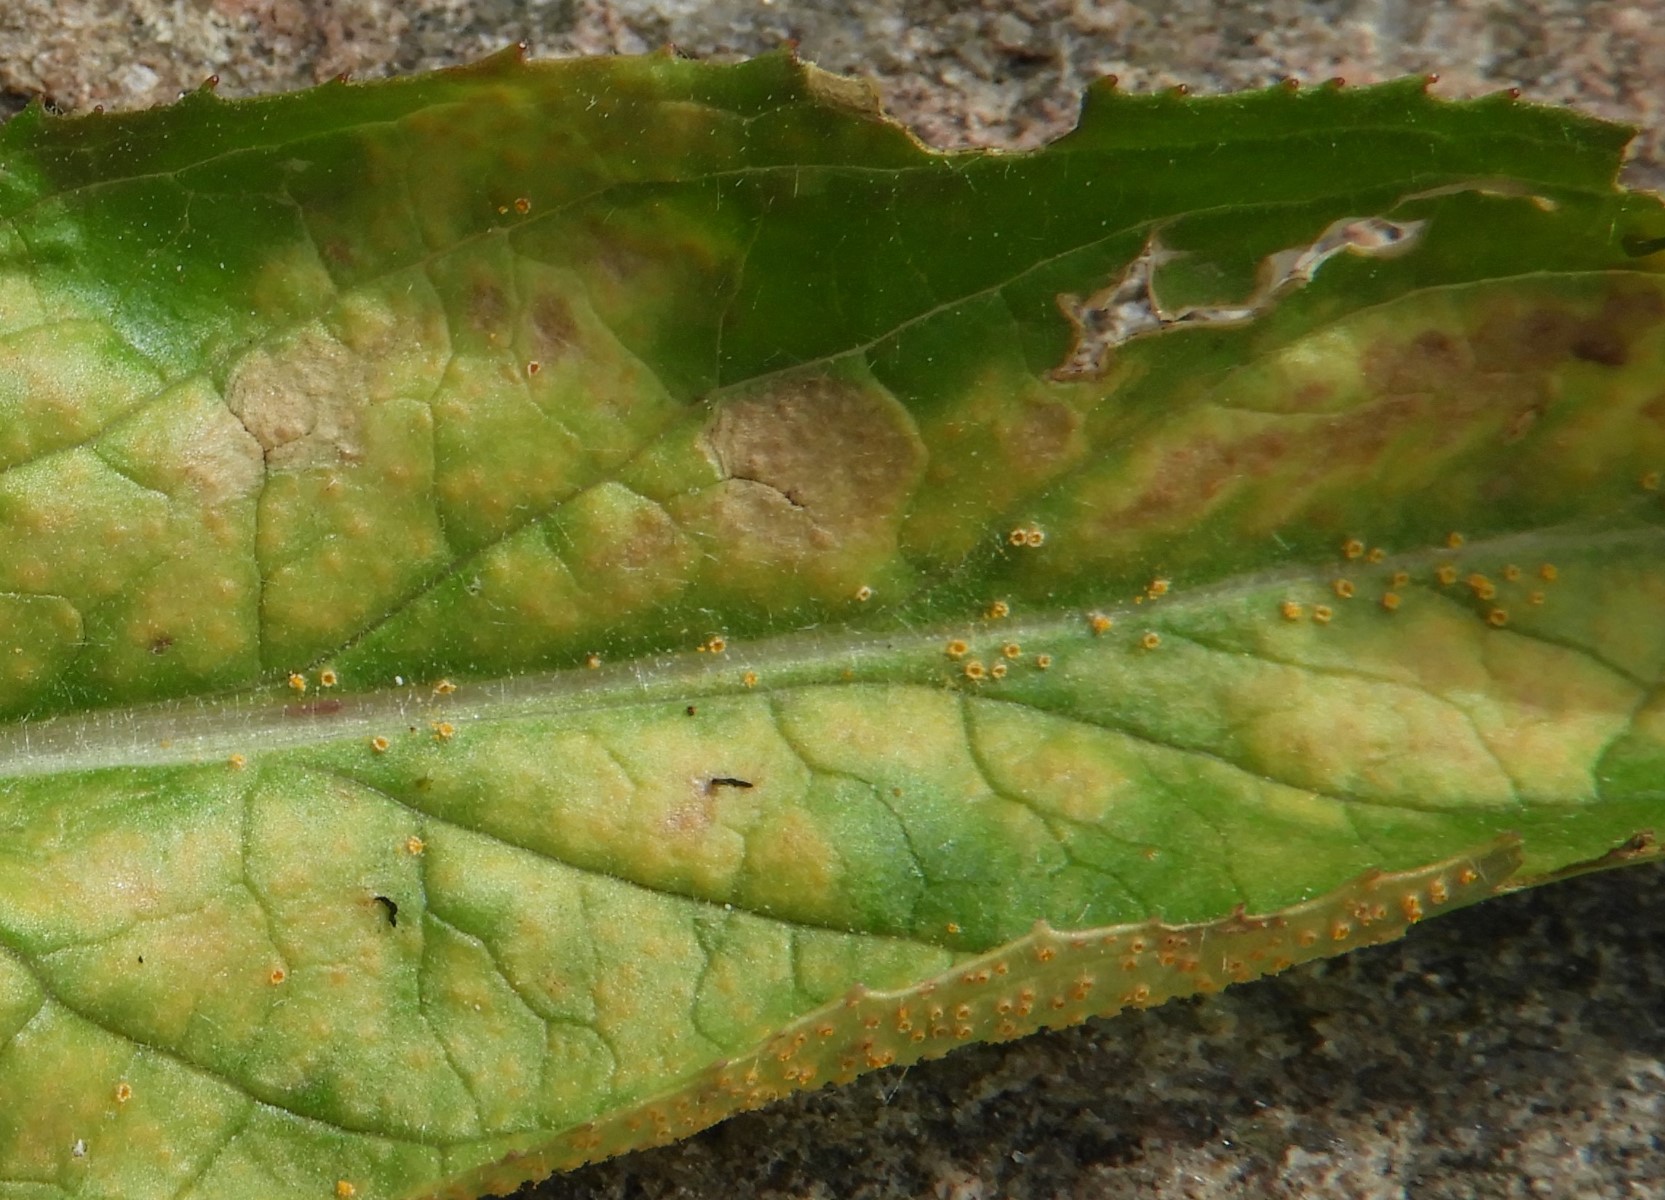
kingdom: Fungi
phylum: Basidiomycota
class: Pucciniomycetes
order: Pucciniales
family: Pucciniaceae
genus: Puccinia
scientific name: Puccinia pulverulenta
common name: dueurt-tvecellerust
